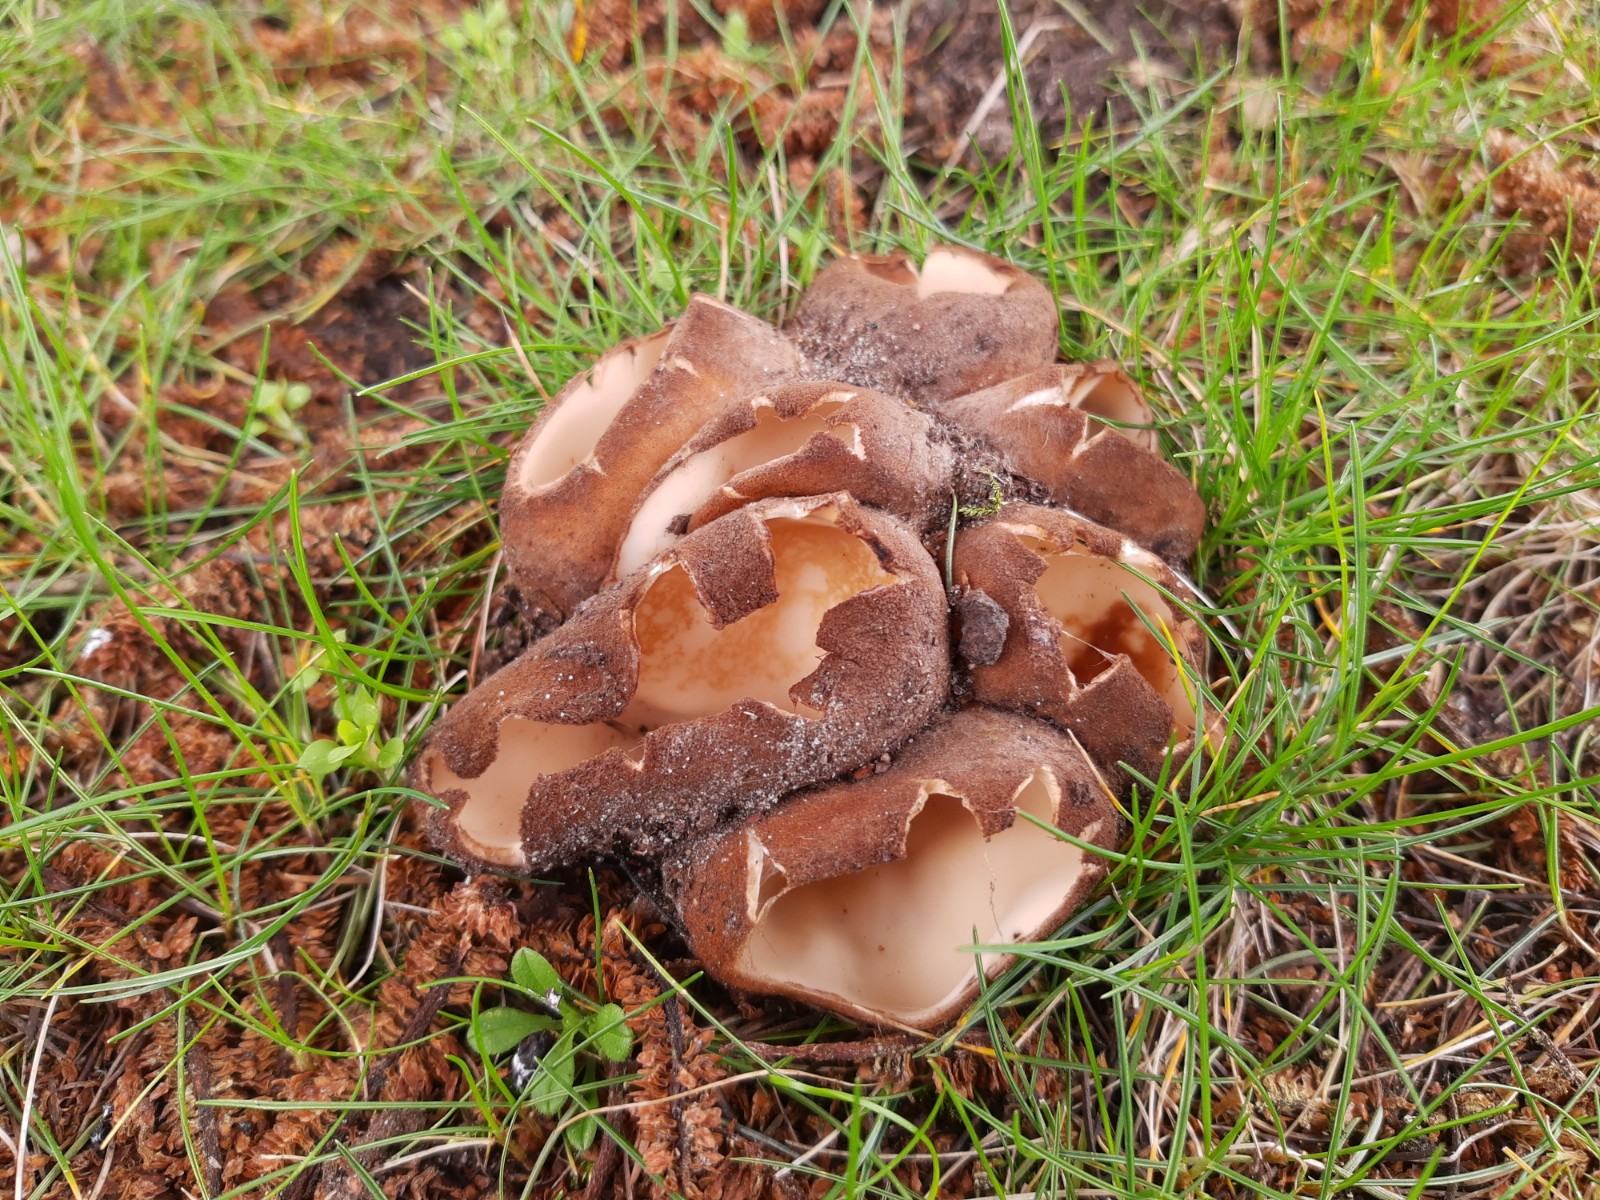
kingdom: Fungi
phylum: Ascomycota
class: Pezizomycetes
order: Pezizales
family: Pyronemataceae
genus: Geopora
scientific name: Geopora sumneriana
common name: vår-jordbæger
